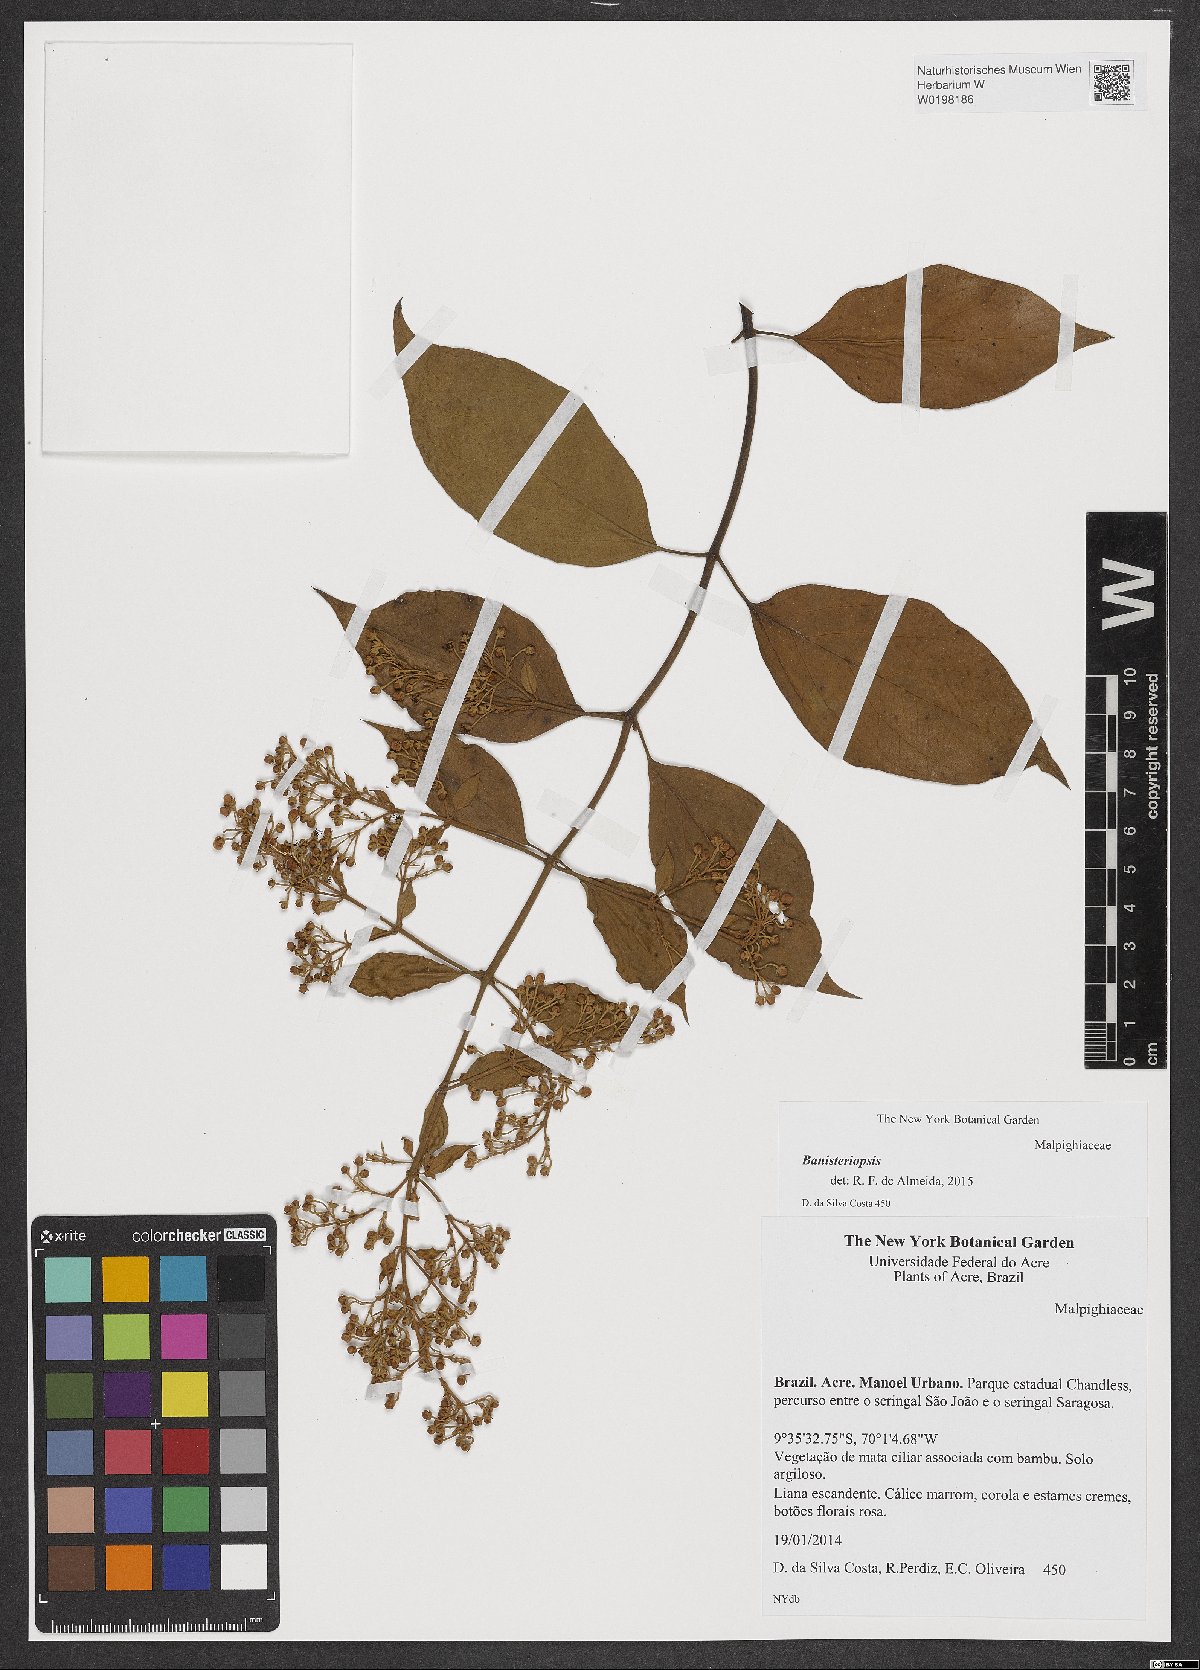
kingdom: Plantae
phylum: Tracheophyta
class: Magnoliopsida
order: Malpighiales
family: Malpighiaceae
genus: Banisteriopsis
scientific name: Banisteriopsis
